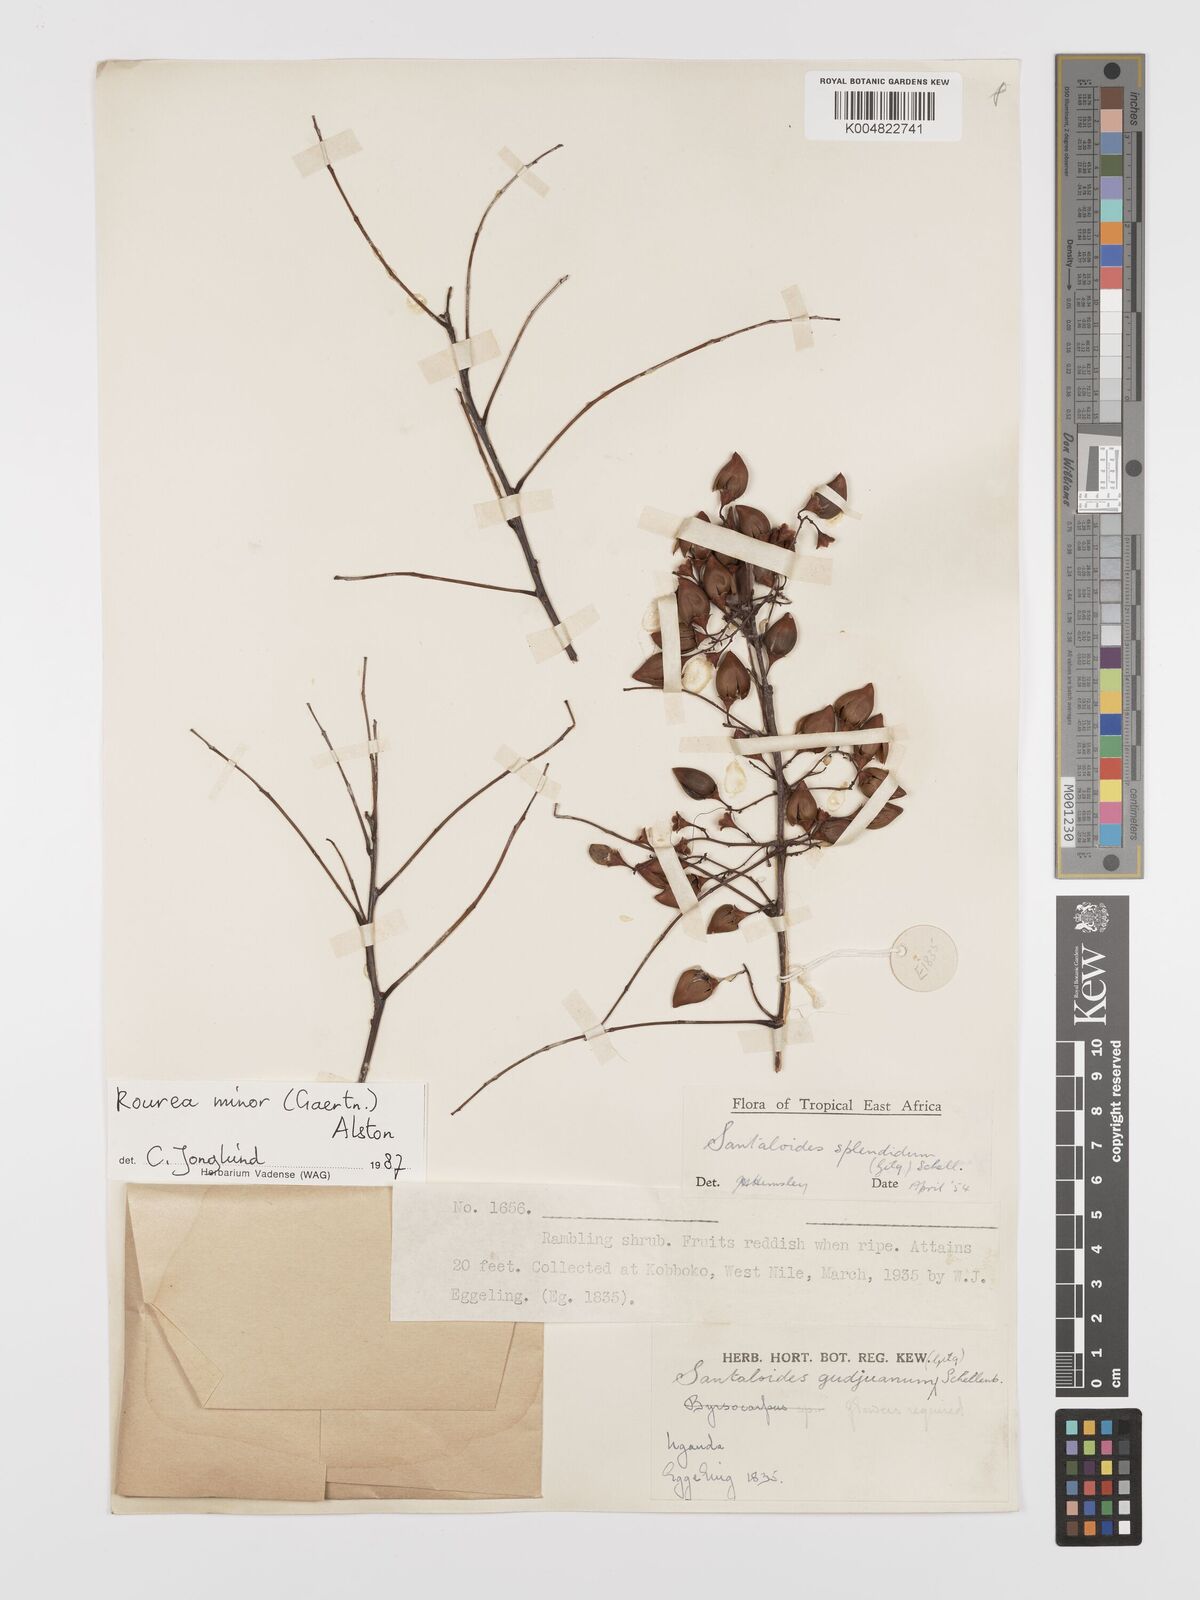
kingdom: Plantae
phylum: Tracheophyta
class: Magnoliopsida
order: Oxalidales
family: Connaraceae
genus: Rourea
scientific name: Rourea minor
